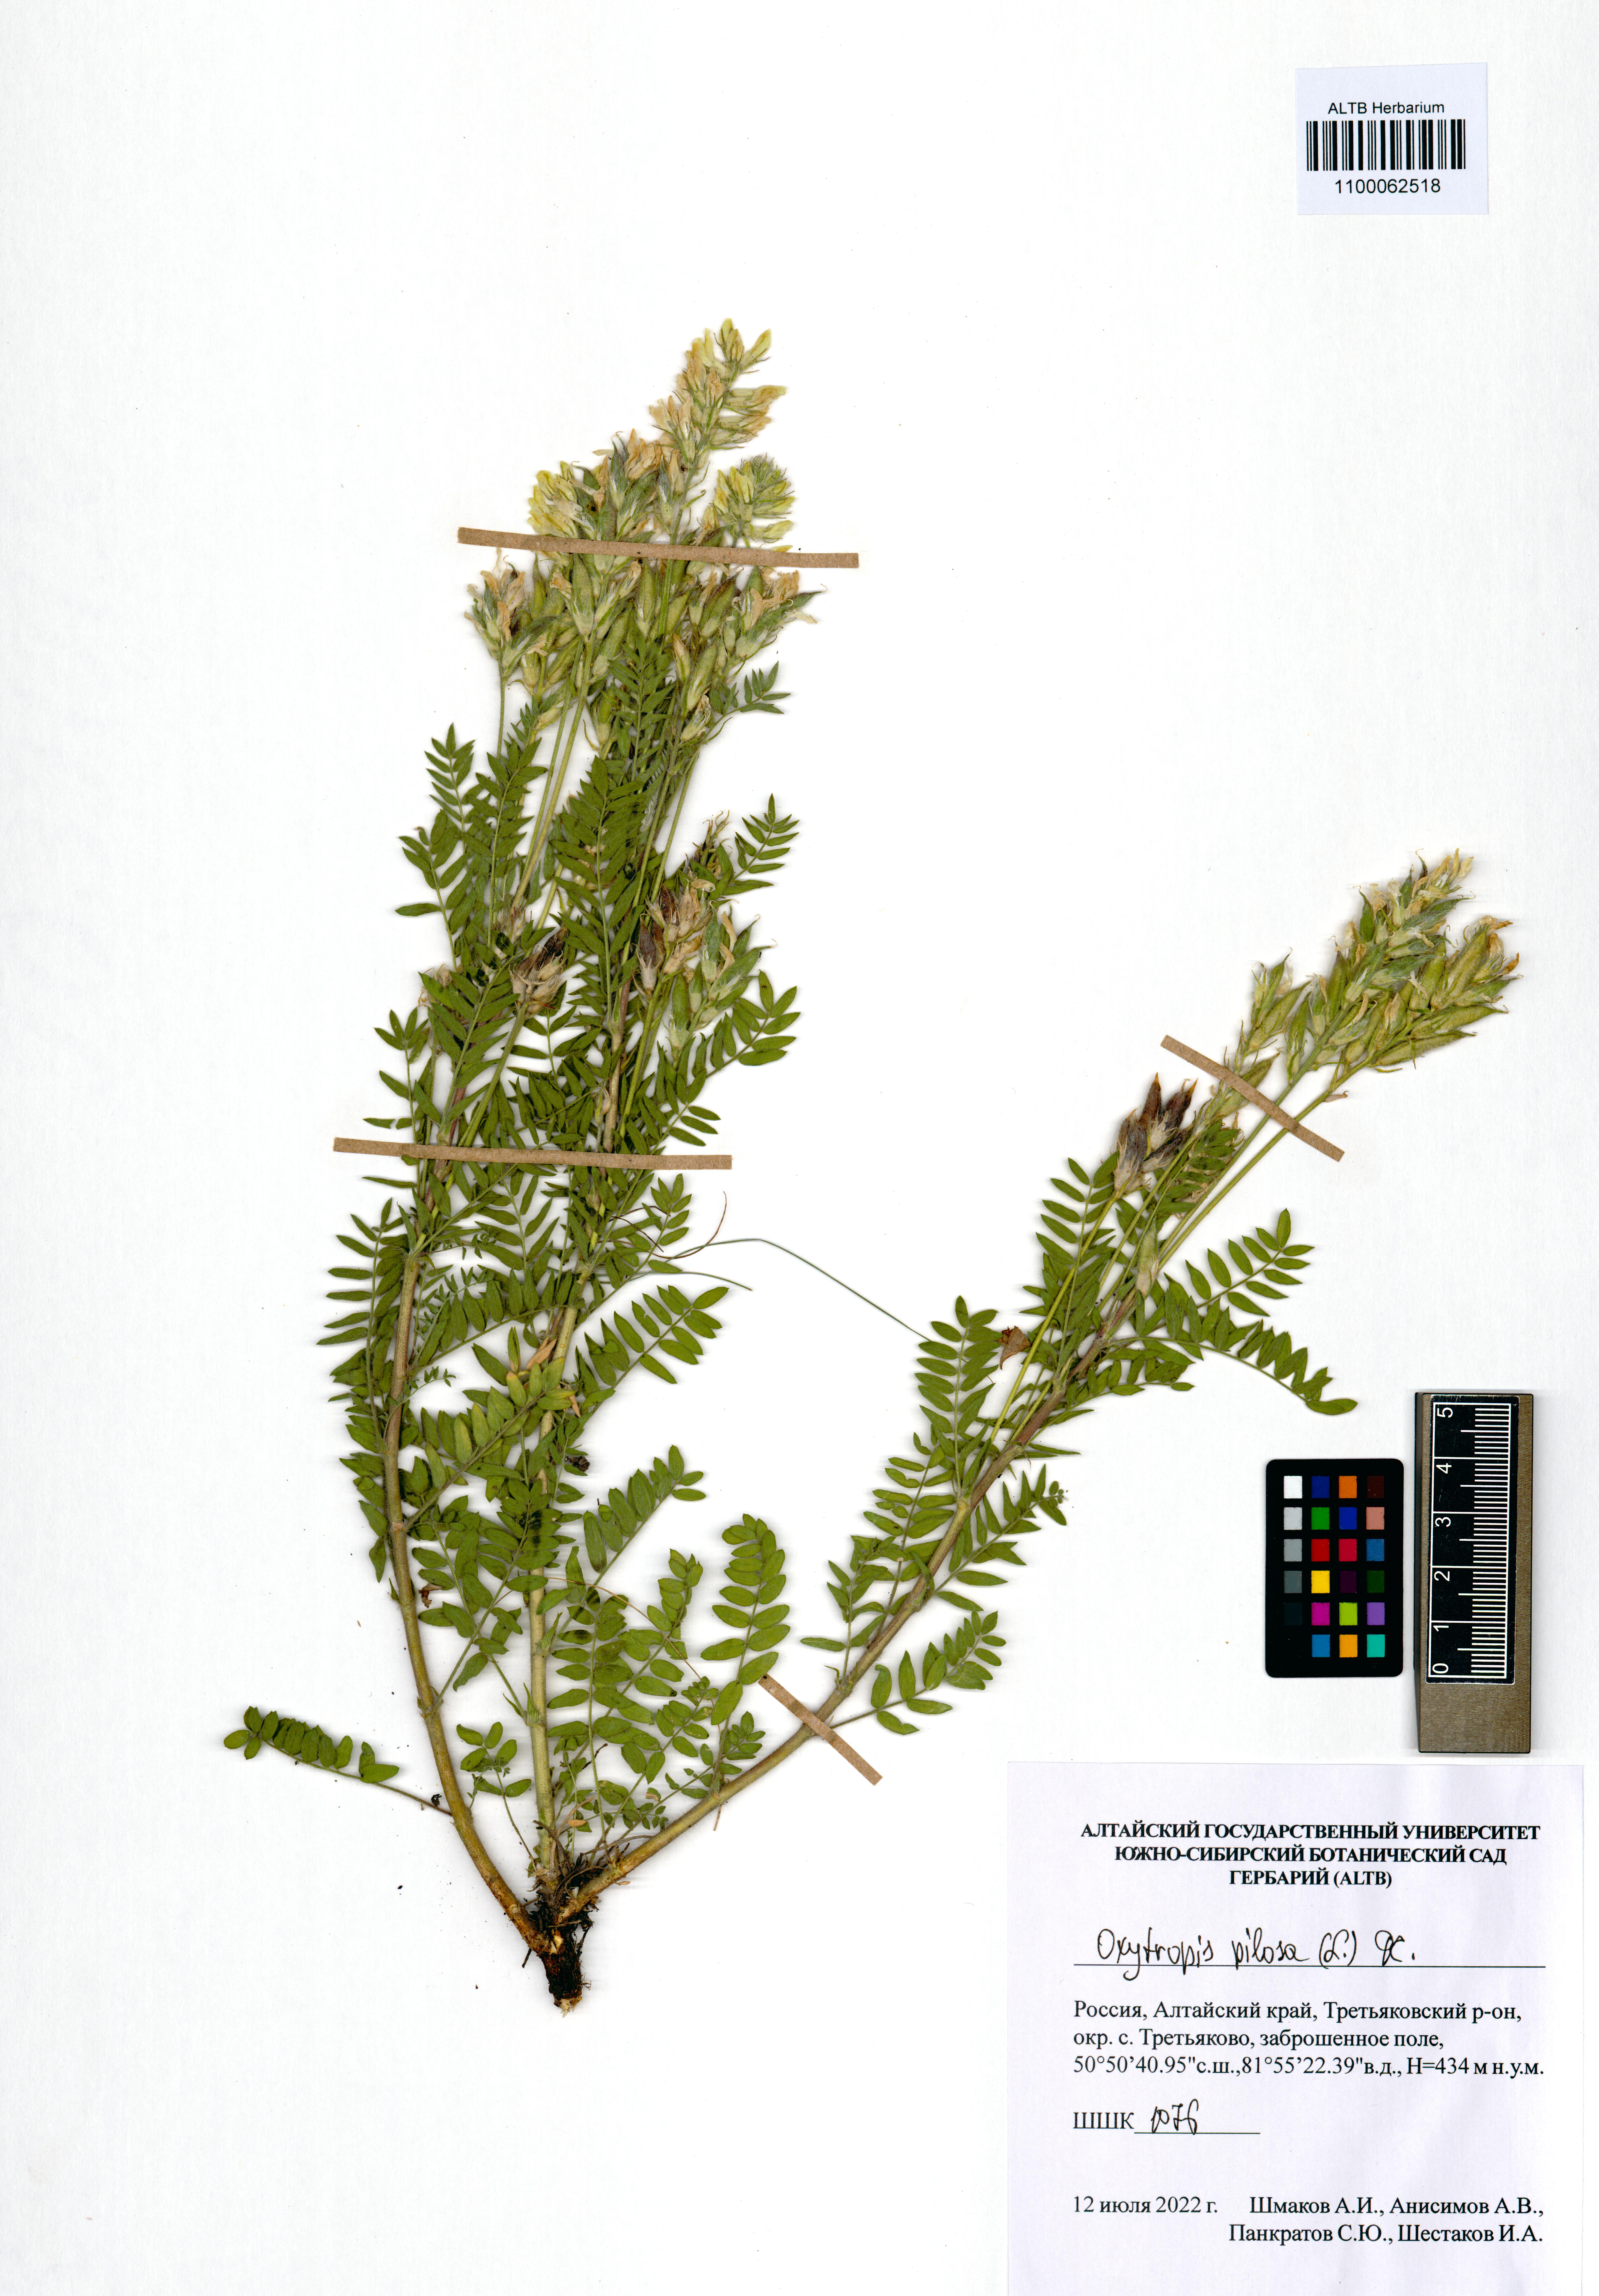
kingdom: Plantae
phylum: Tracheophyta
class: Magnoliopsida
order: Fabales
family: Fabaceae
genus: Oxytropis
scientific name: Oxytropis pilosa
